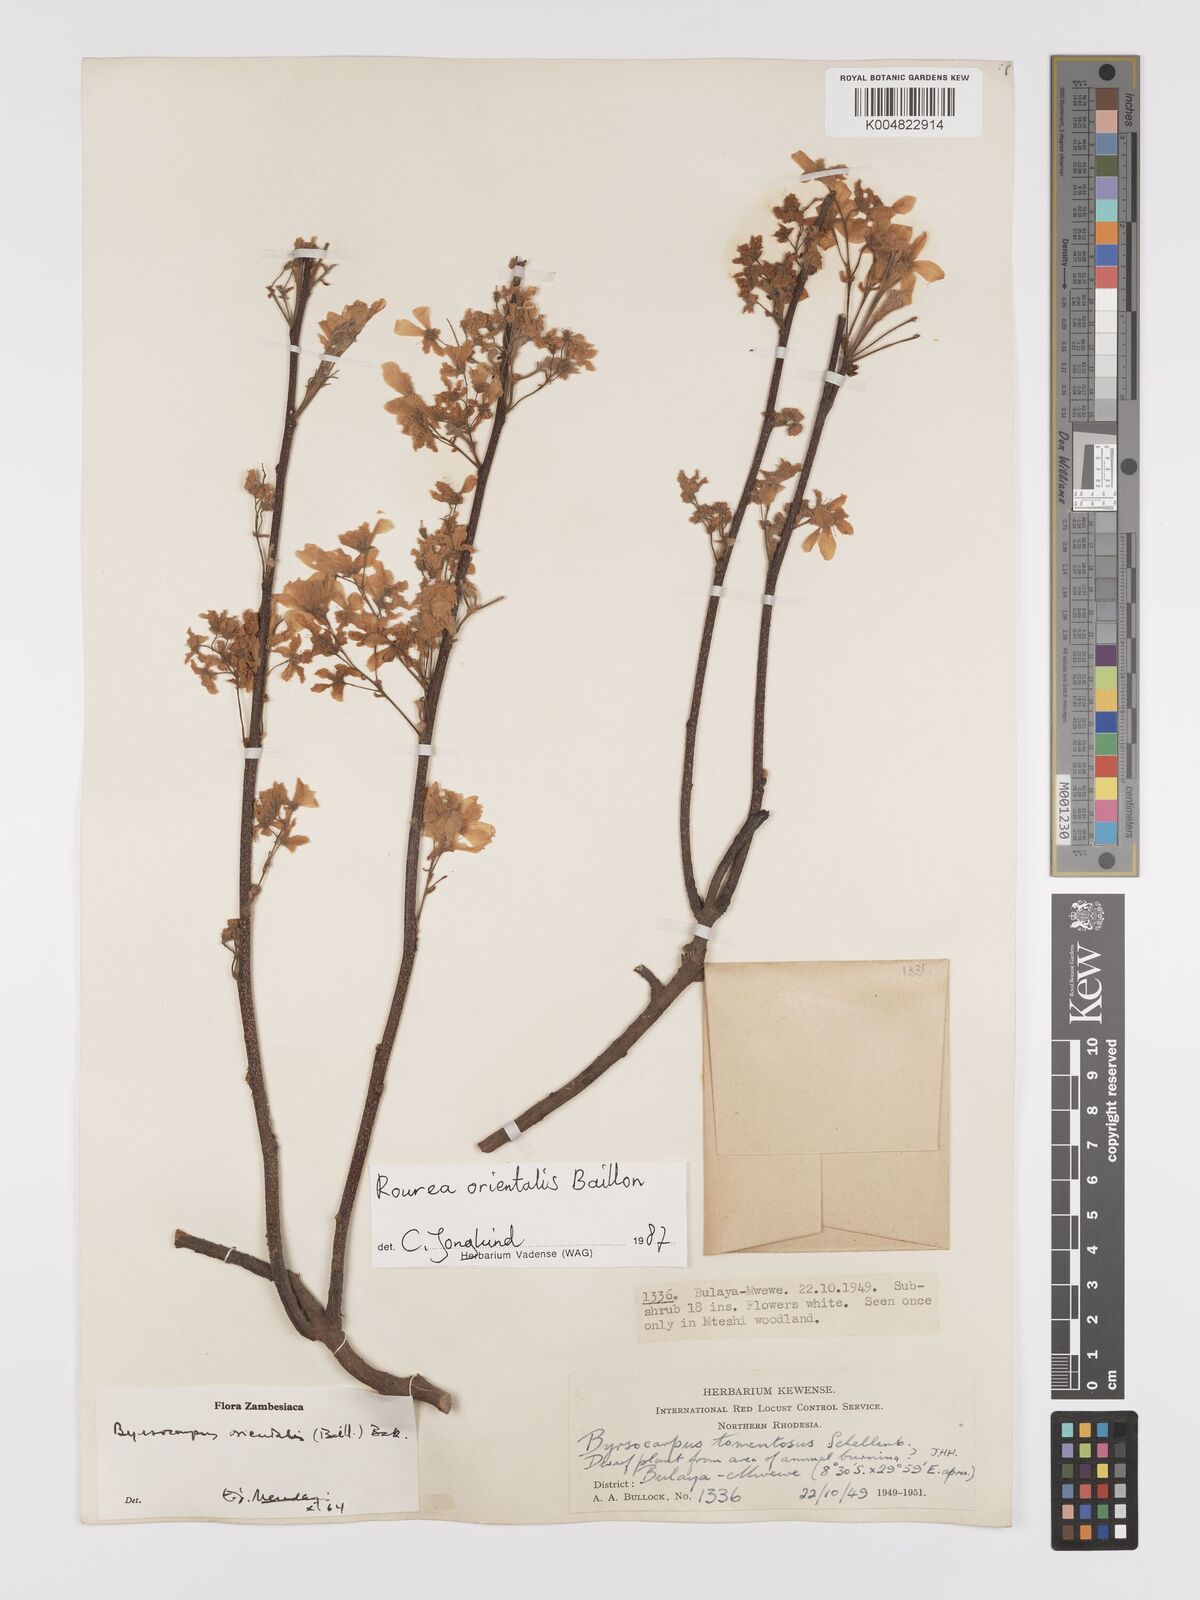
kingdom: Plantae
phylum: Tracheophyta
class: Magnoliopsida
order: Oxalidales
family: Connaraceae
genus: Rourea
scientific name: Rourea orientalis
